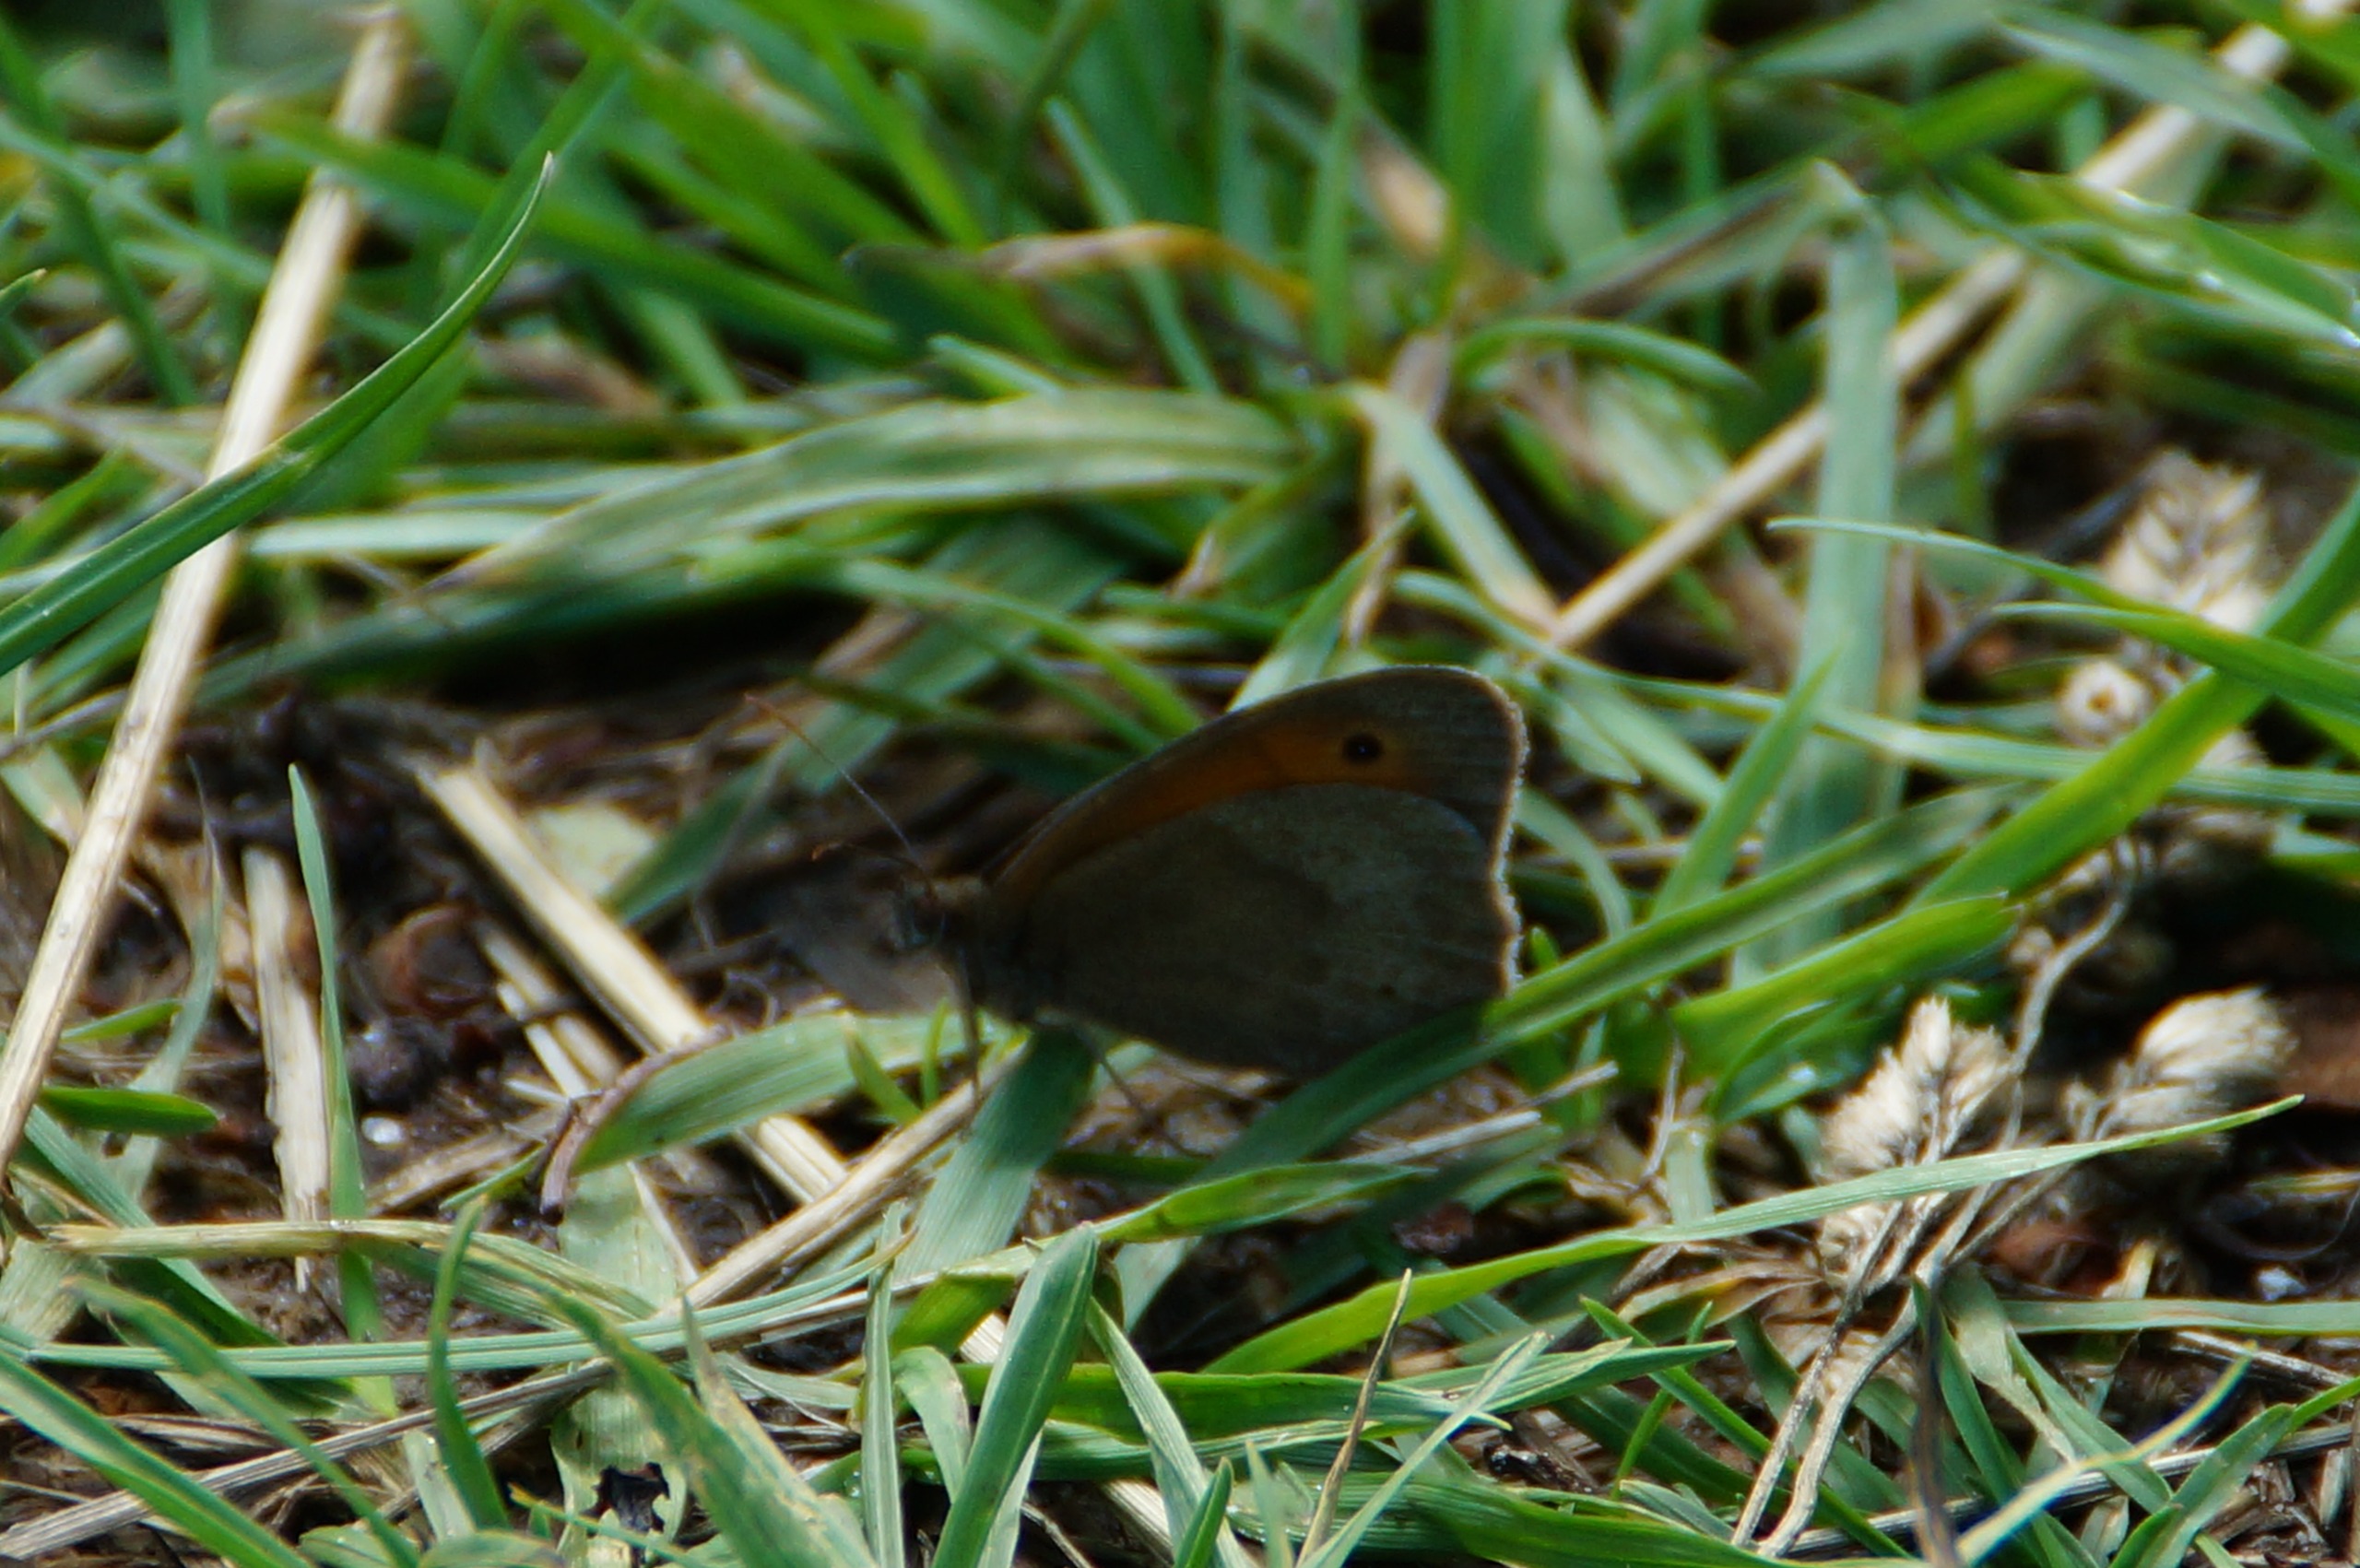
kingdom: Animalia
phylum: Arthropoda
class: Insecta
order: Lepidoptera
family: Nymphalidae
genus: Maniola
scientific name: Maniola jurtina
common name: Græsrandøje
